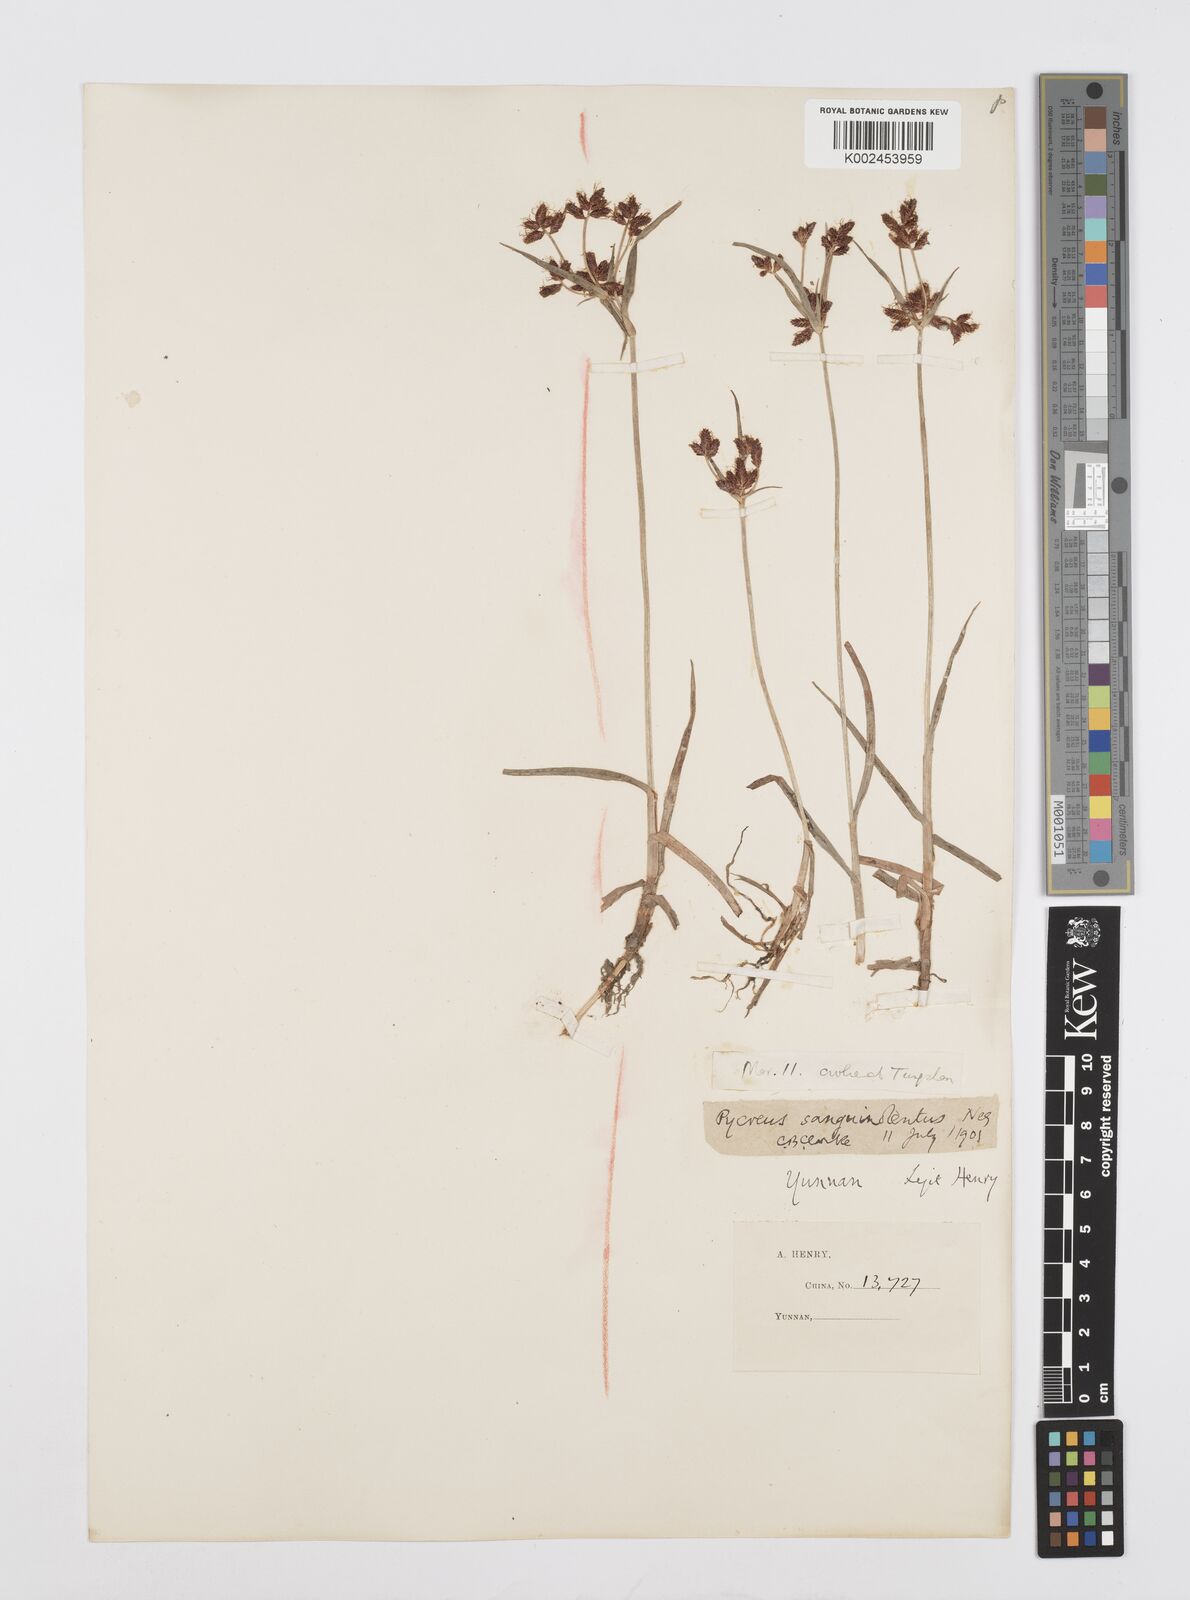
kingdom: Plantae
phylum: Tracheophyta
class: Liliopsida
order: Poales
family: Cyperaceae
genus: Cyperus
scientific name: Cyperus sanguinolentus
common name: Purpleglume flatsedge
